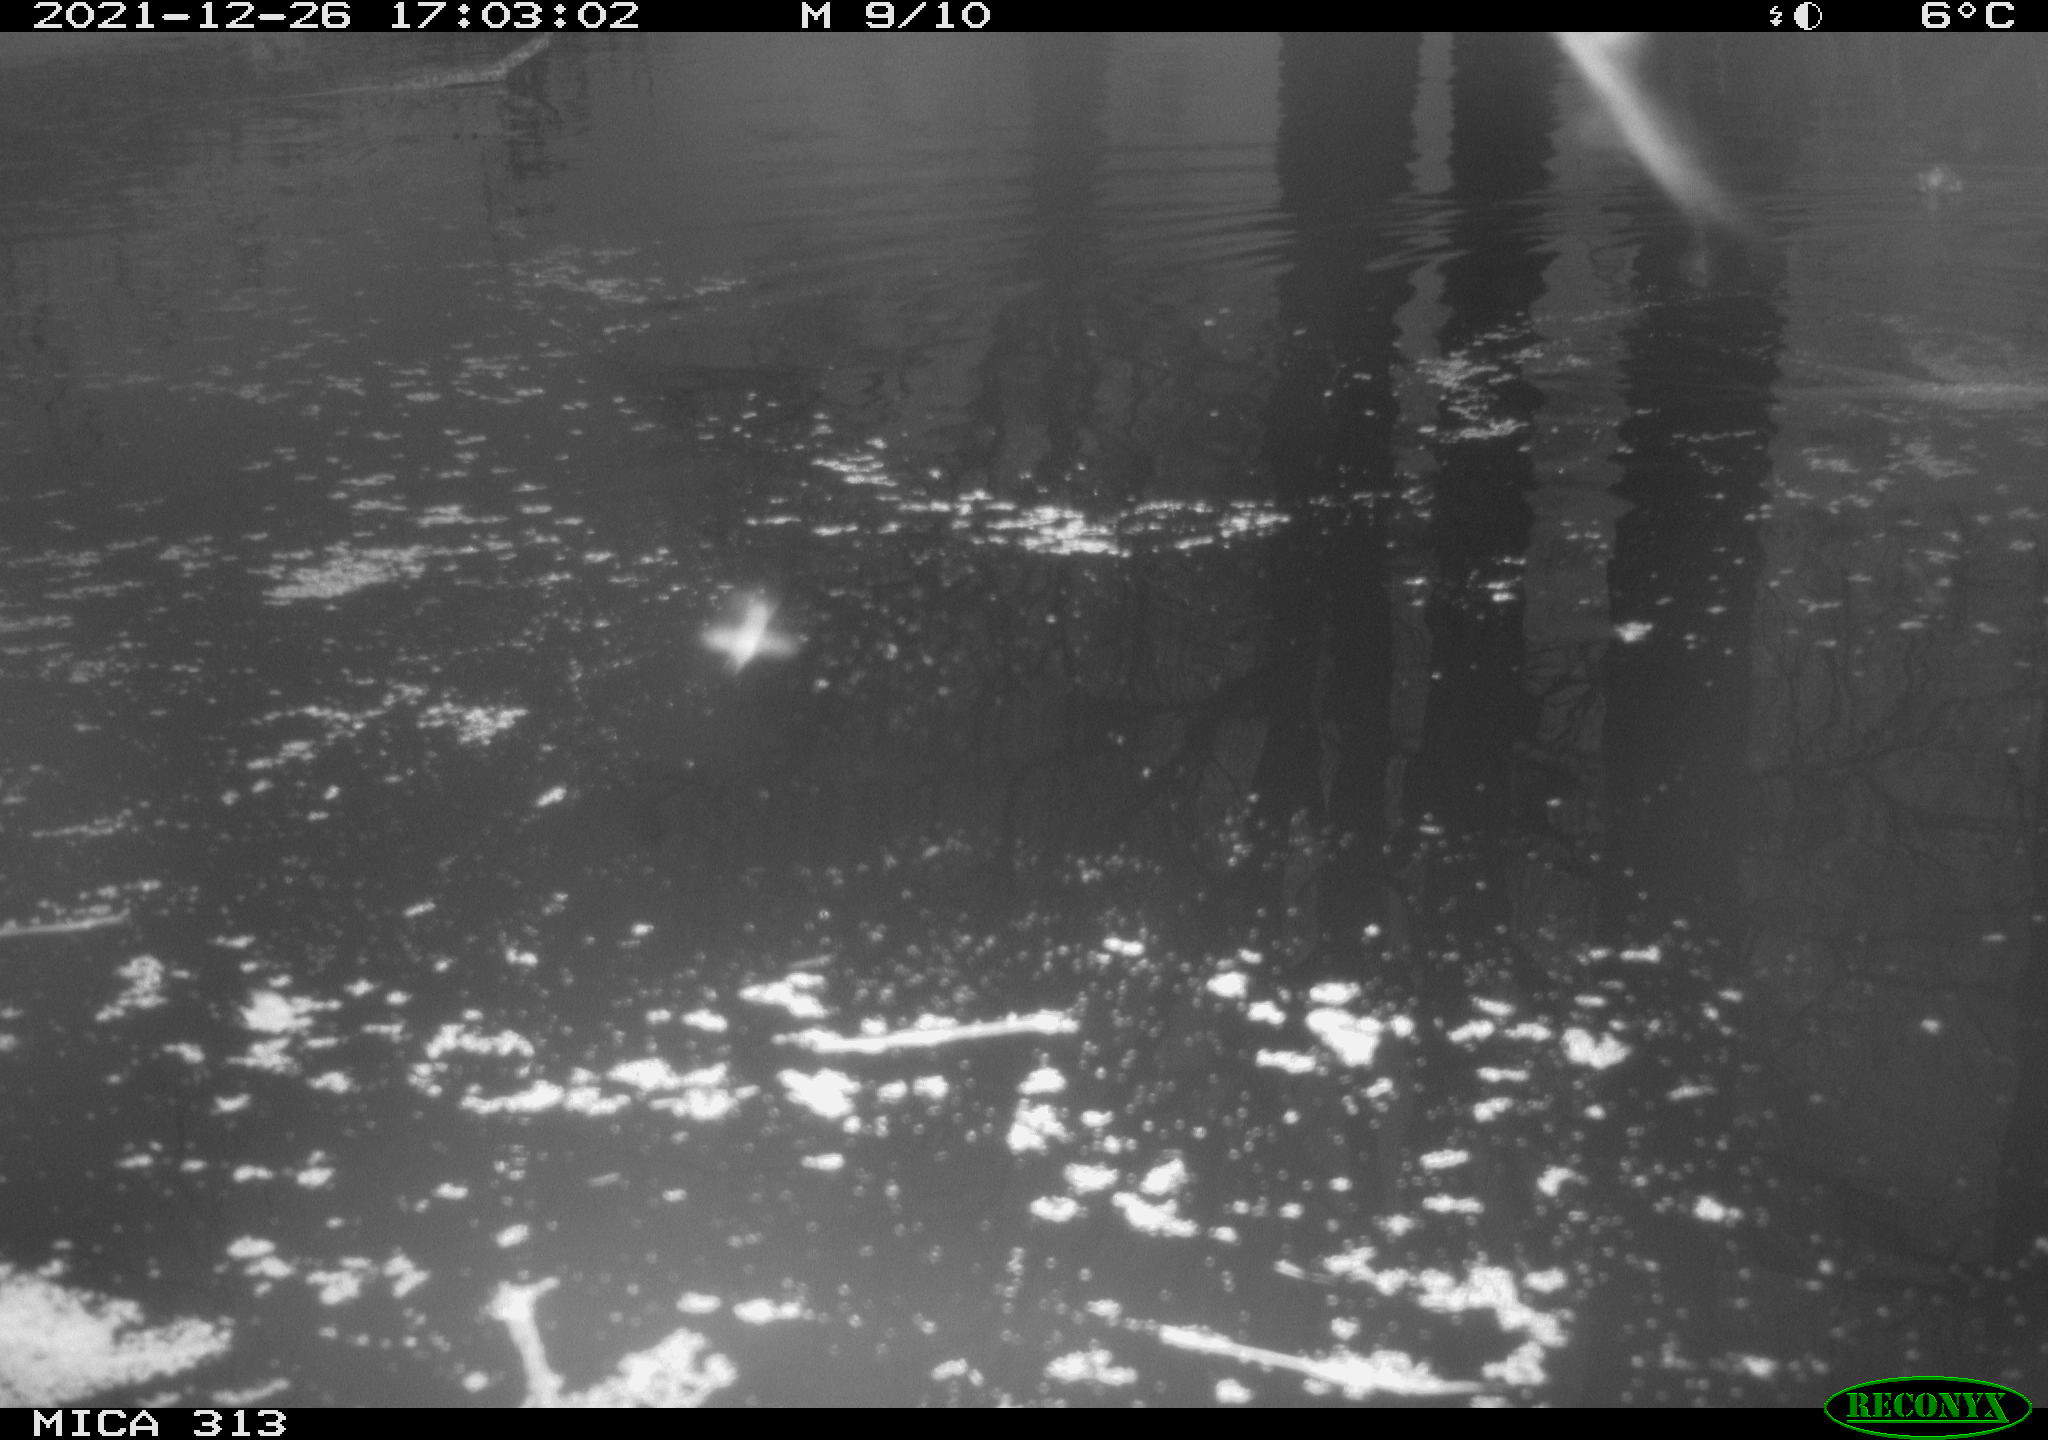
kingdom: Animalia
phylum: Chordata
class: Aves
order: Gruiformes
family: Rallidae
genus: Gallinula
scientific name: Gallinula chloropus
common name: Common moorhen
